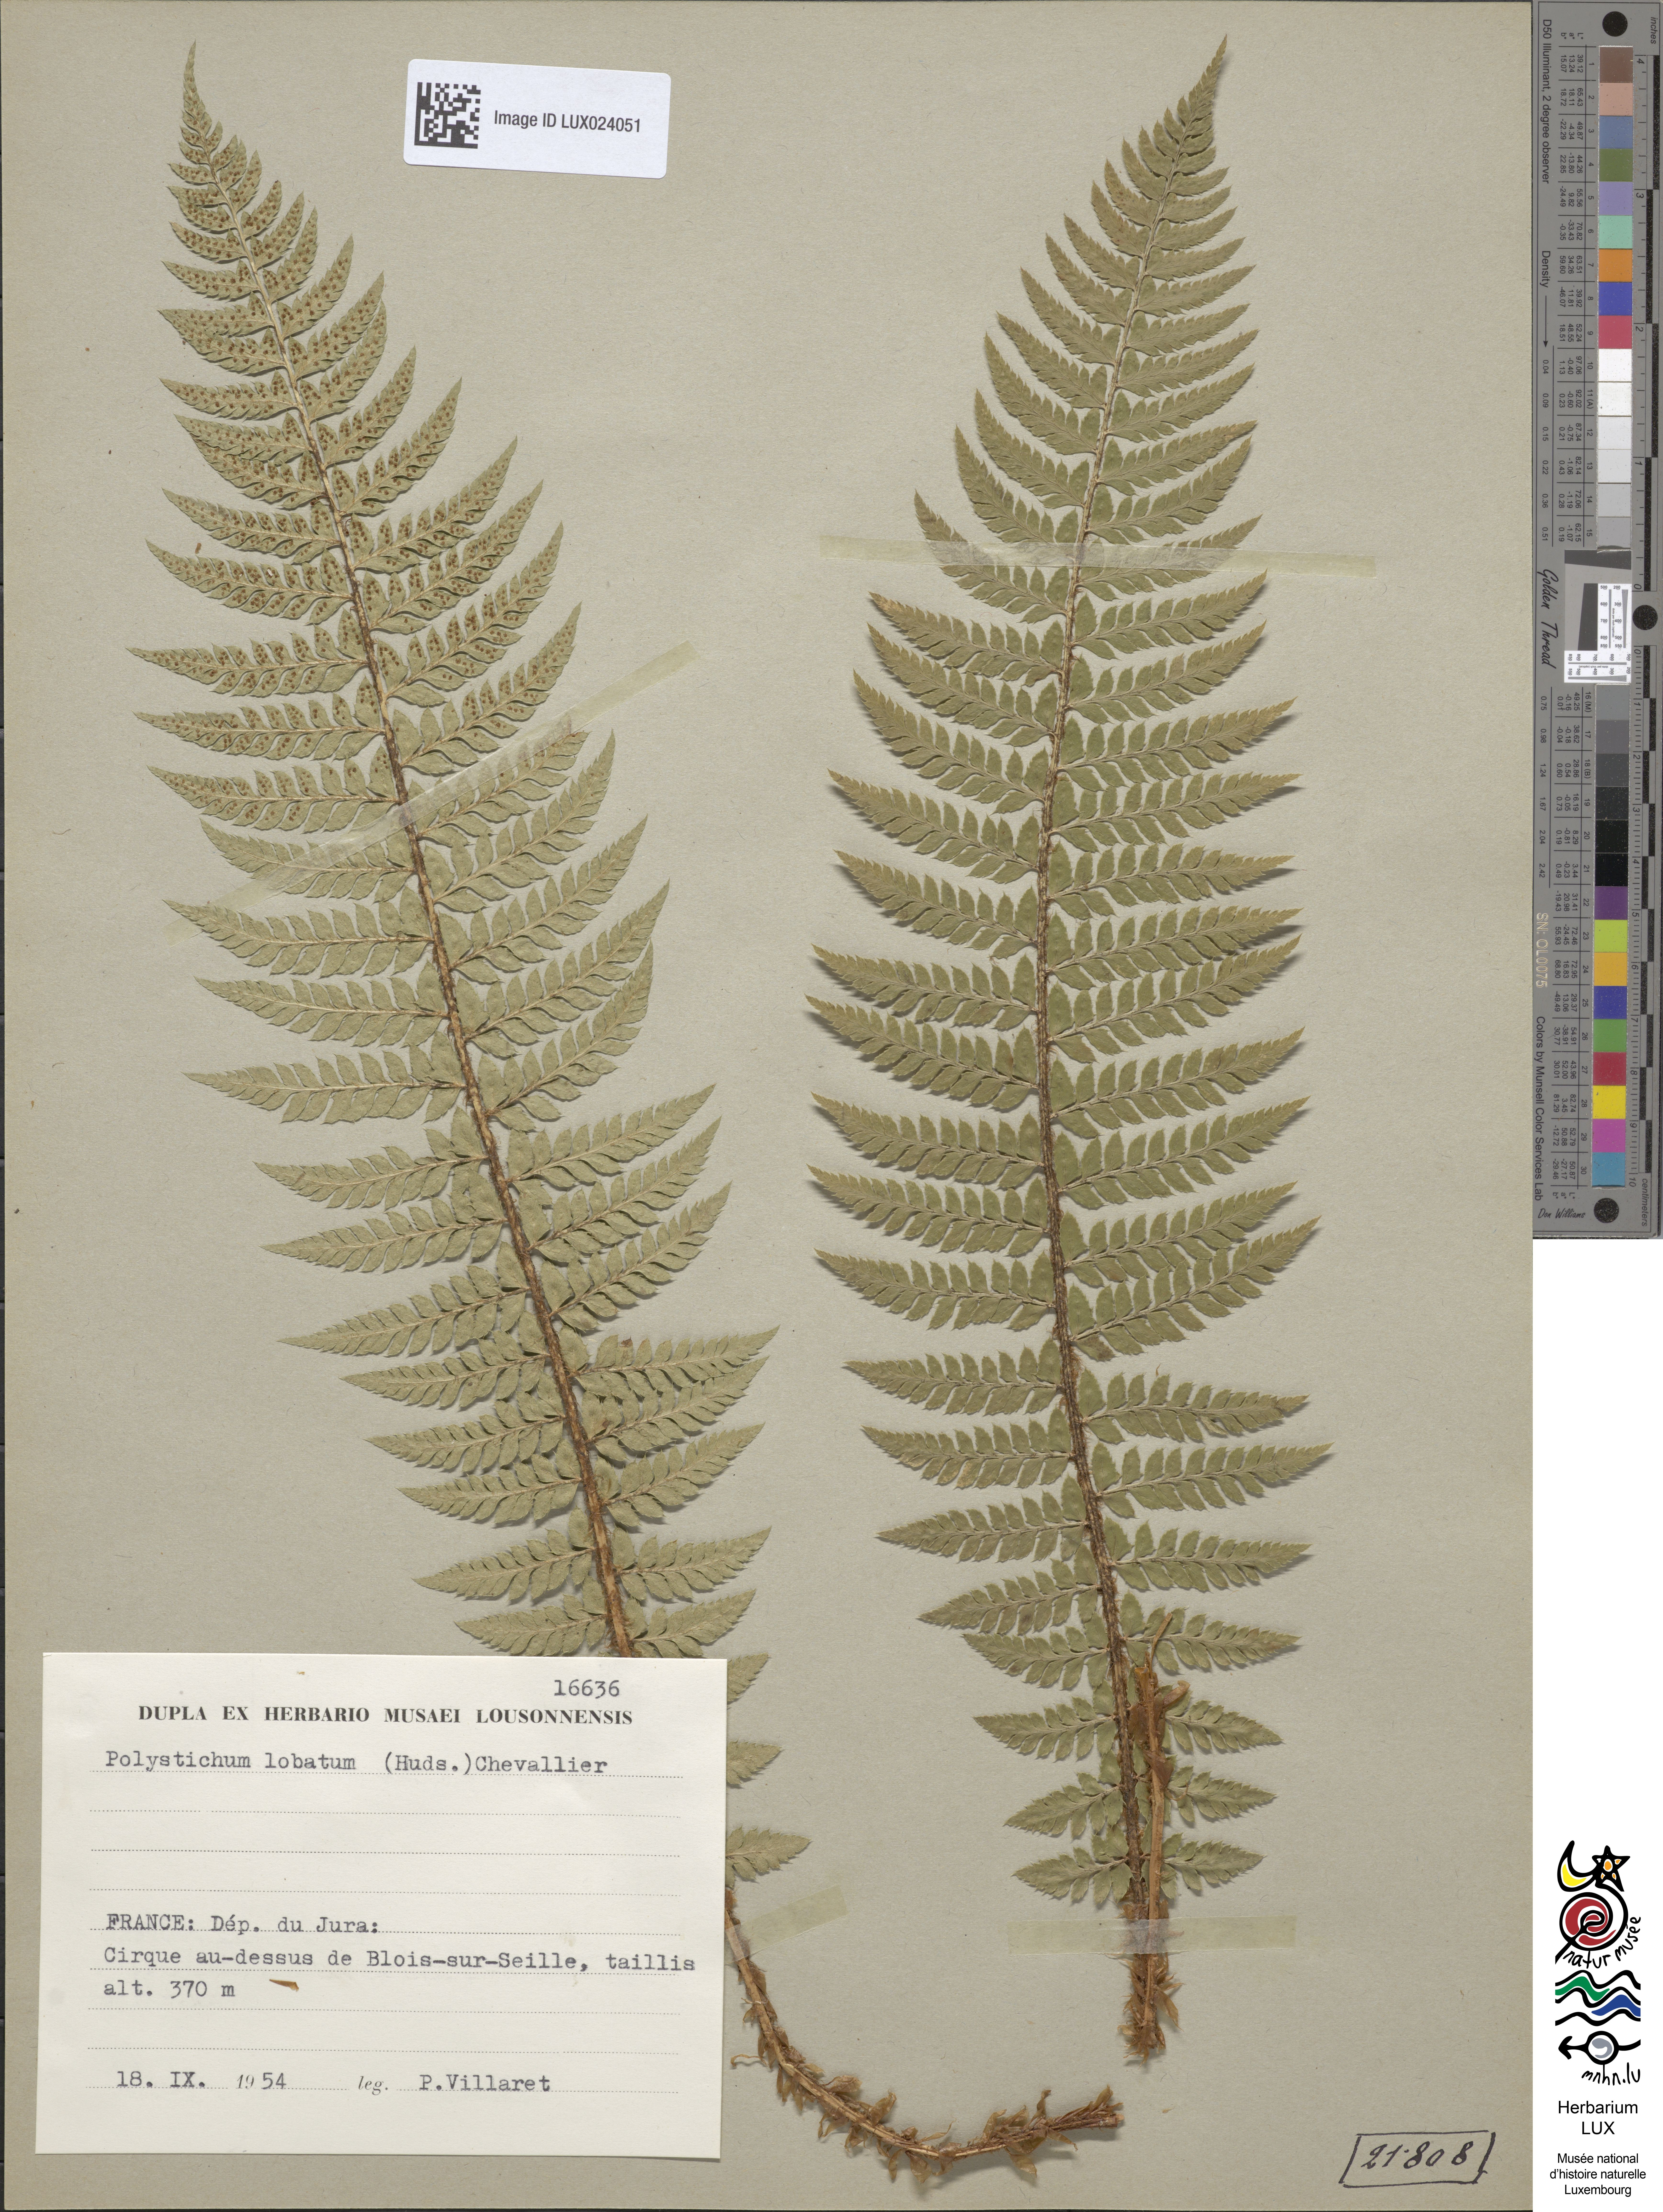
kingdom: Plantae
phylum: Tracheophyta
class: Polypodiopsida
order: Polypodiales
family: Dryopteridaceae
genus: Polystichum
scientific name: Polystichum aculeatum
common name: Hard shield-fern
